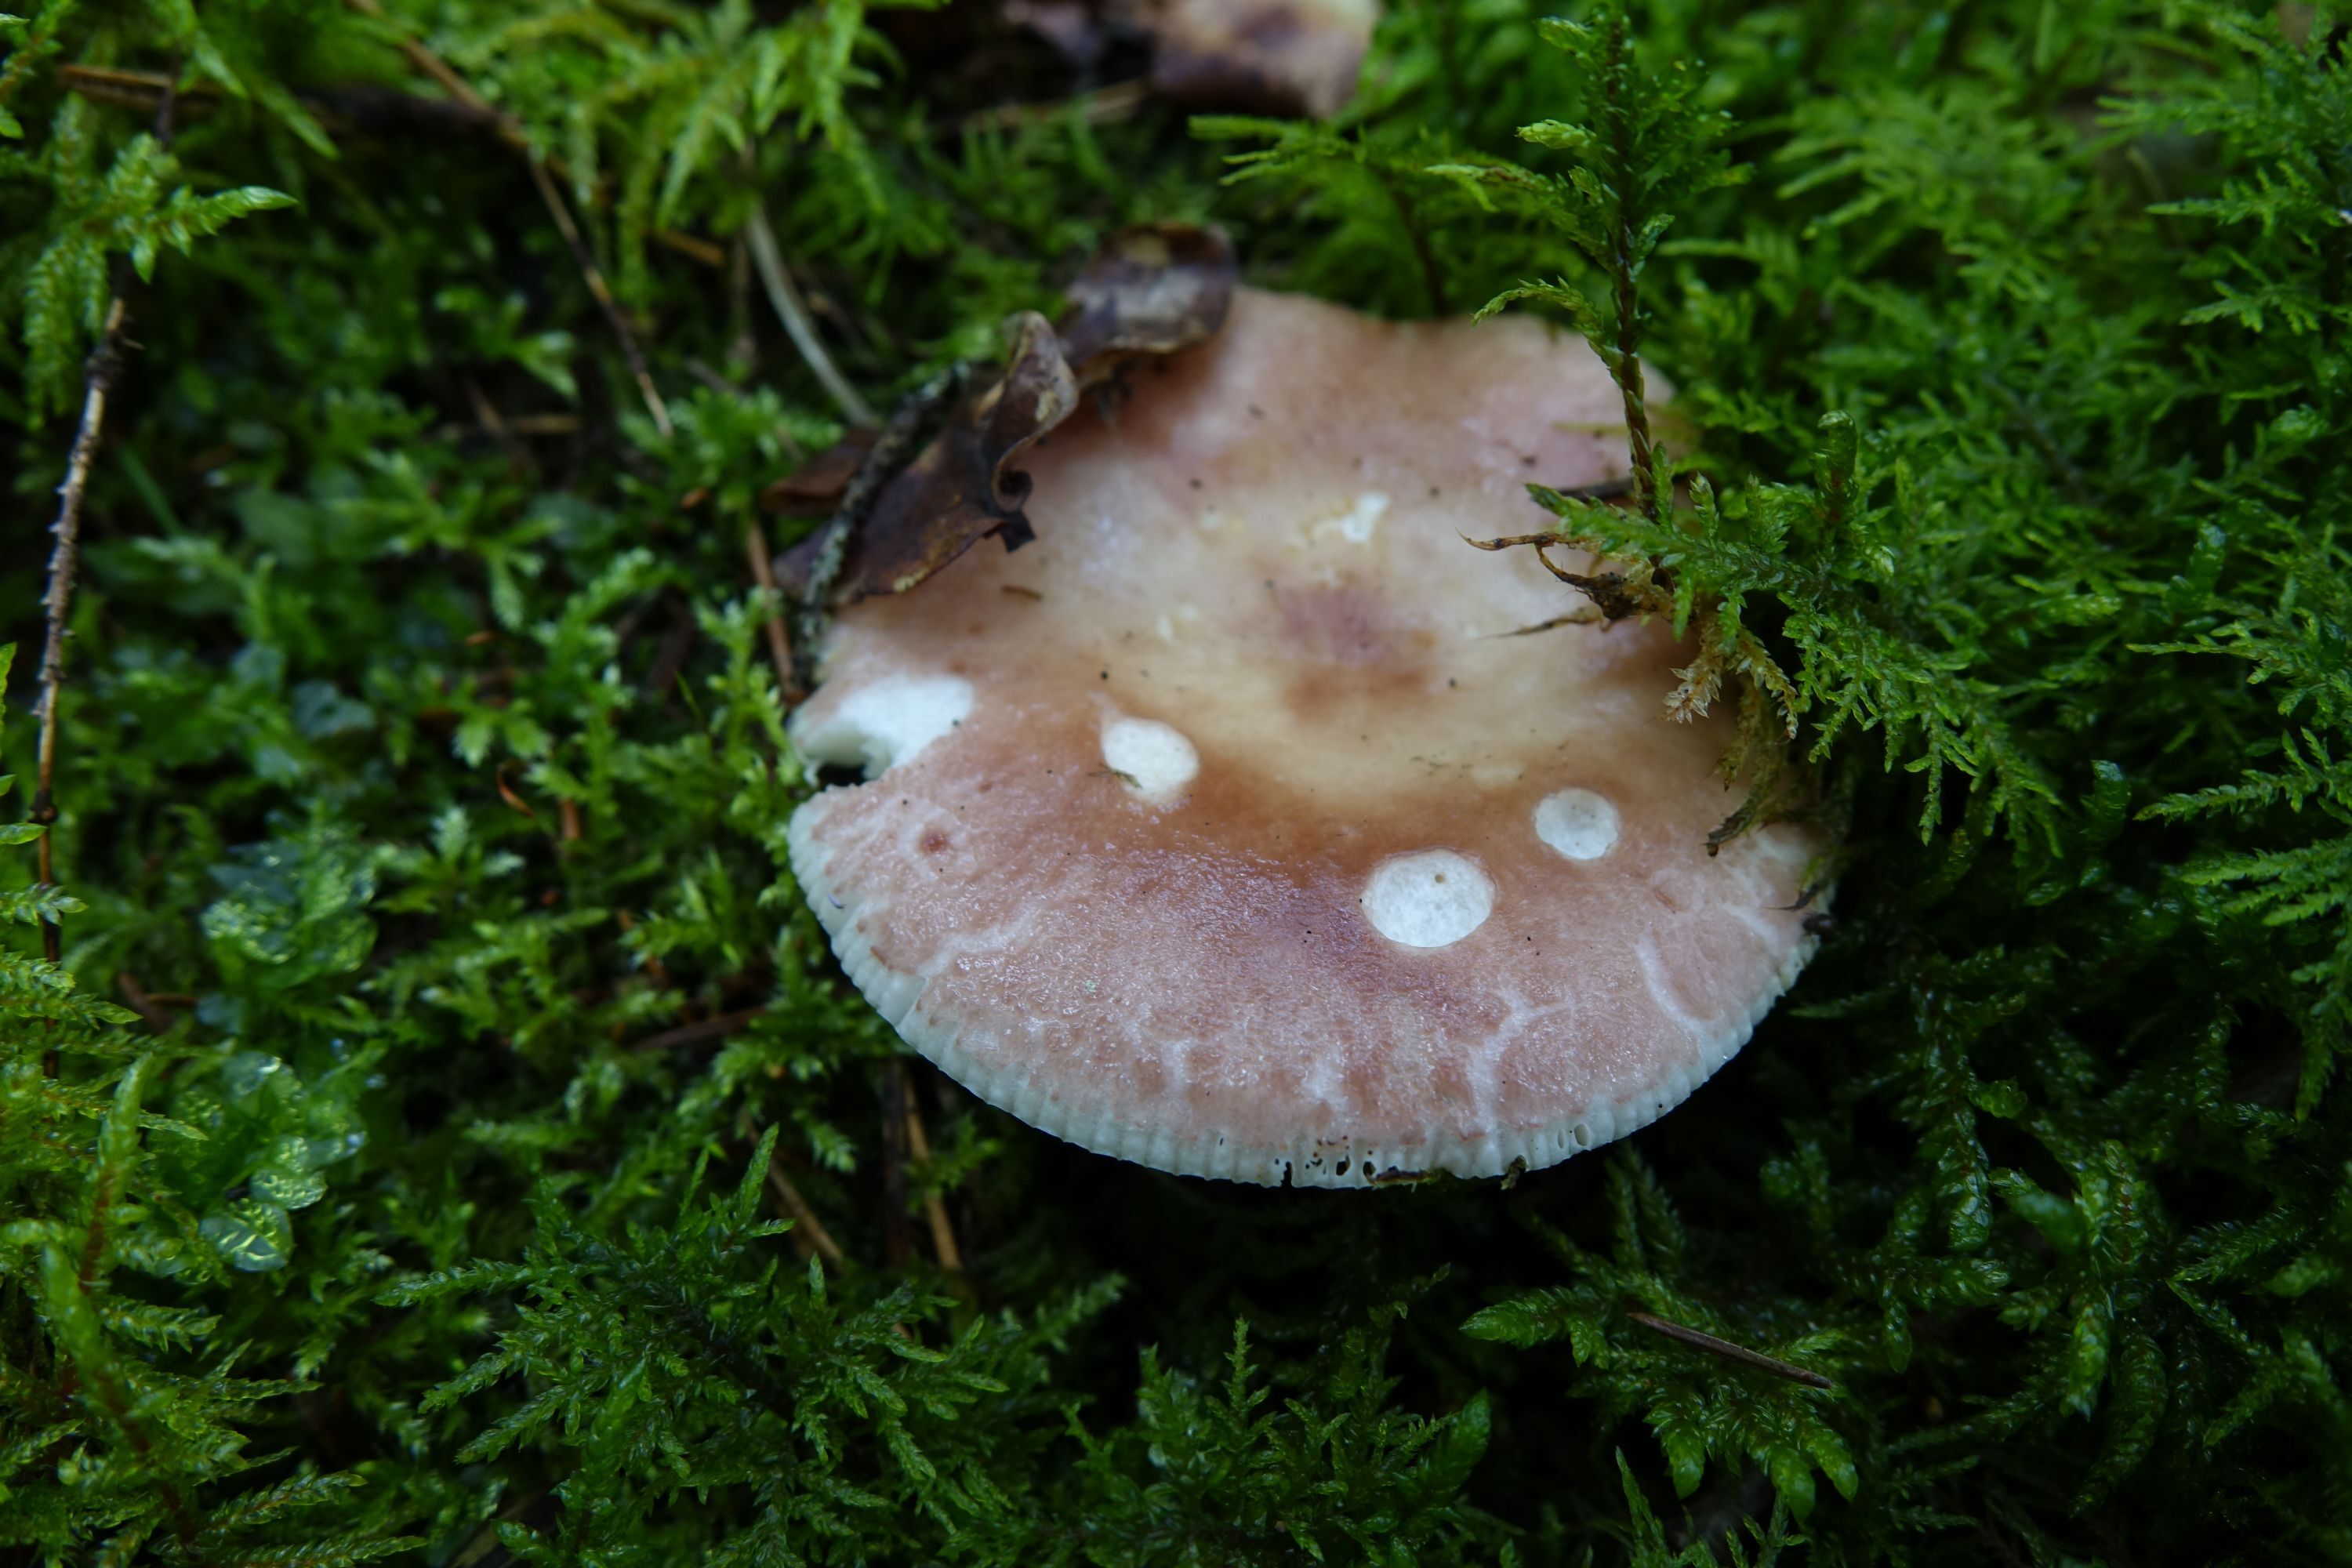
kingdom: Fungi
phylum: Basidiomycota
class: Agaricomycetes
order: Russulales
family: Russulaceae
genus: Russula
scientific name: Russula vesca
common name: Bare-toothed russula
